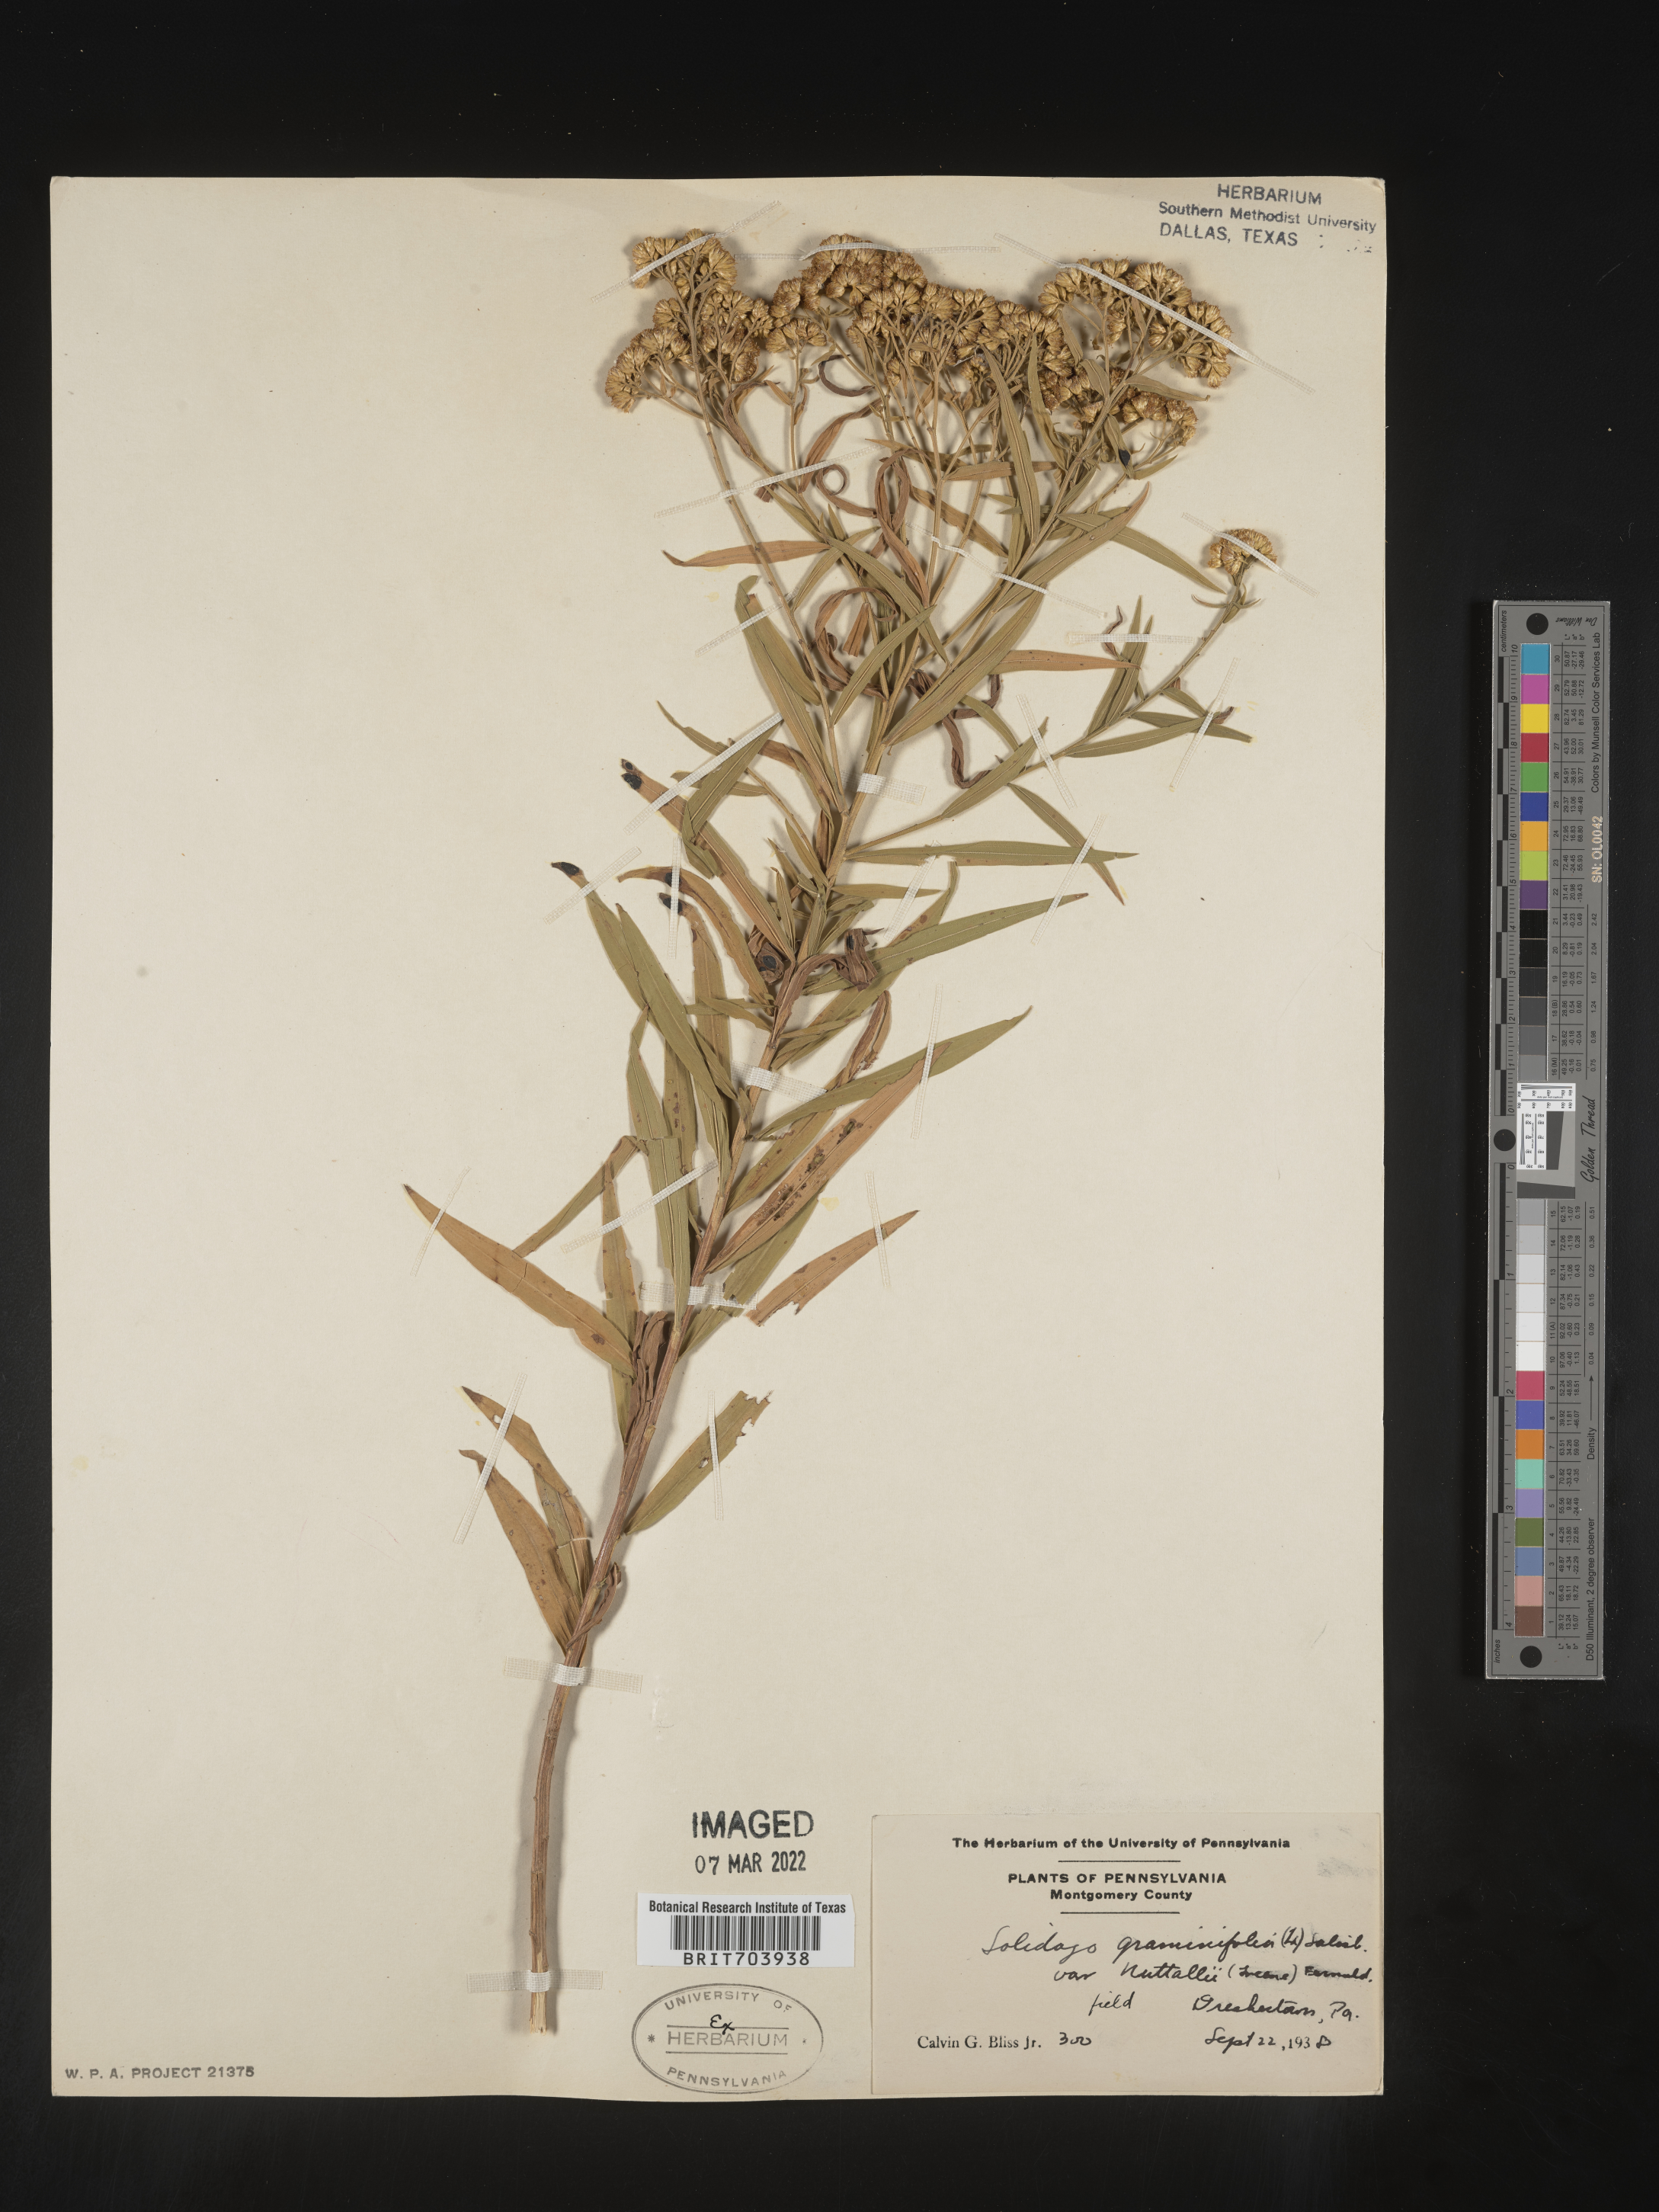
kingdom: Plantae
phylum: Tracheophyta
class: Magnoliopsida
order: Asterales
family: Asteraceae
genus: Euthamia
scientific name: Euthamia graminifolia
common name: Common goldentop
